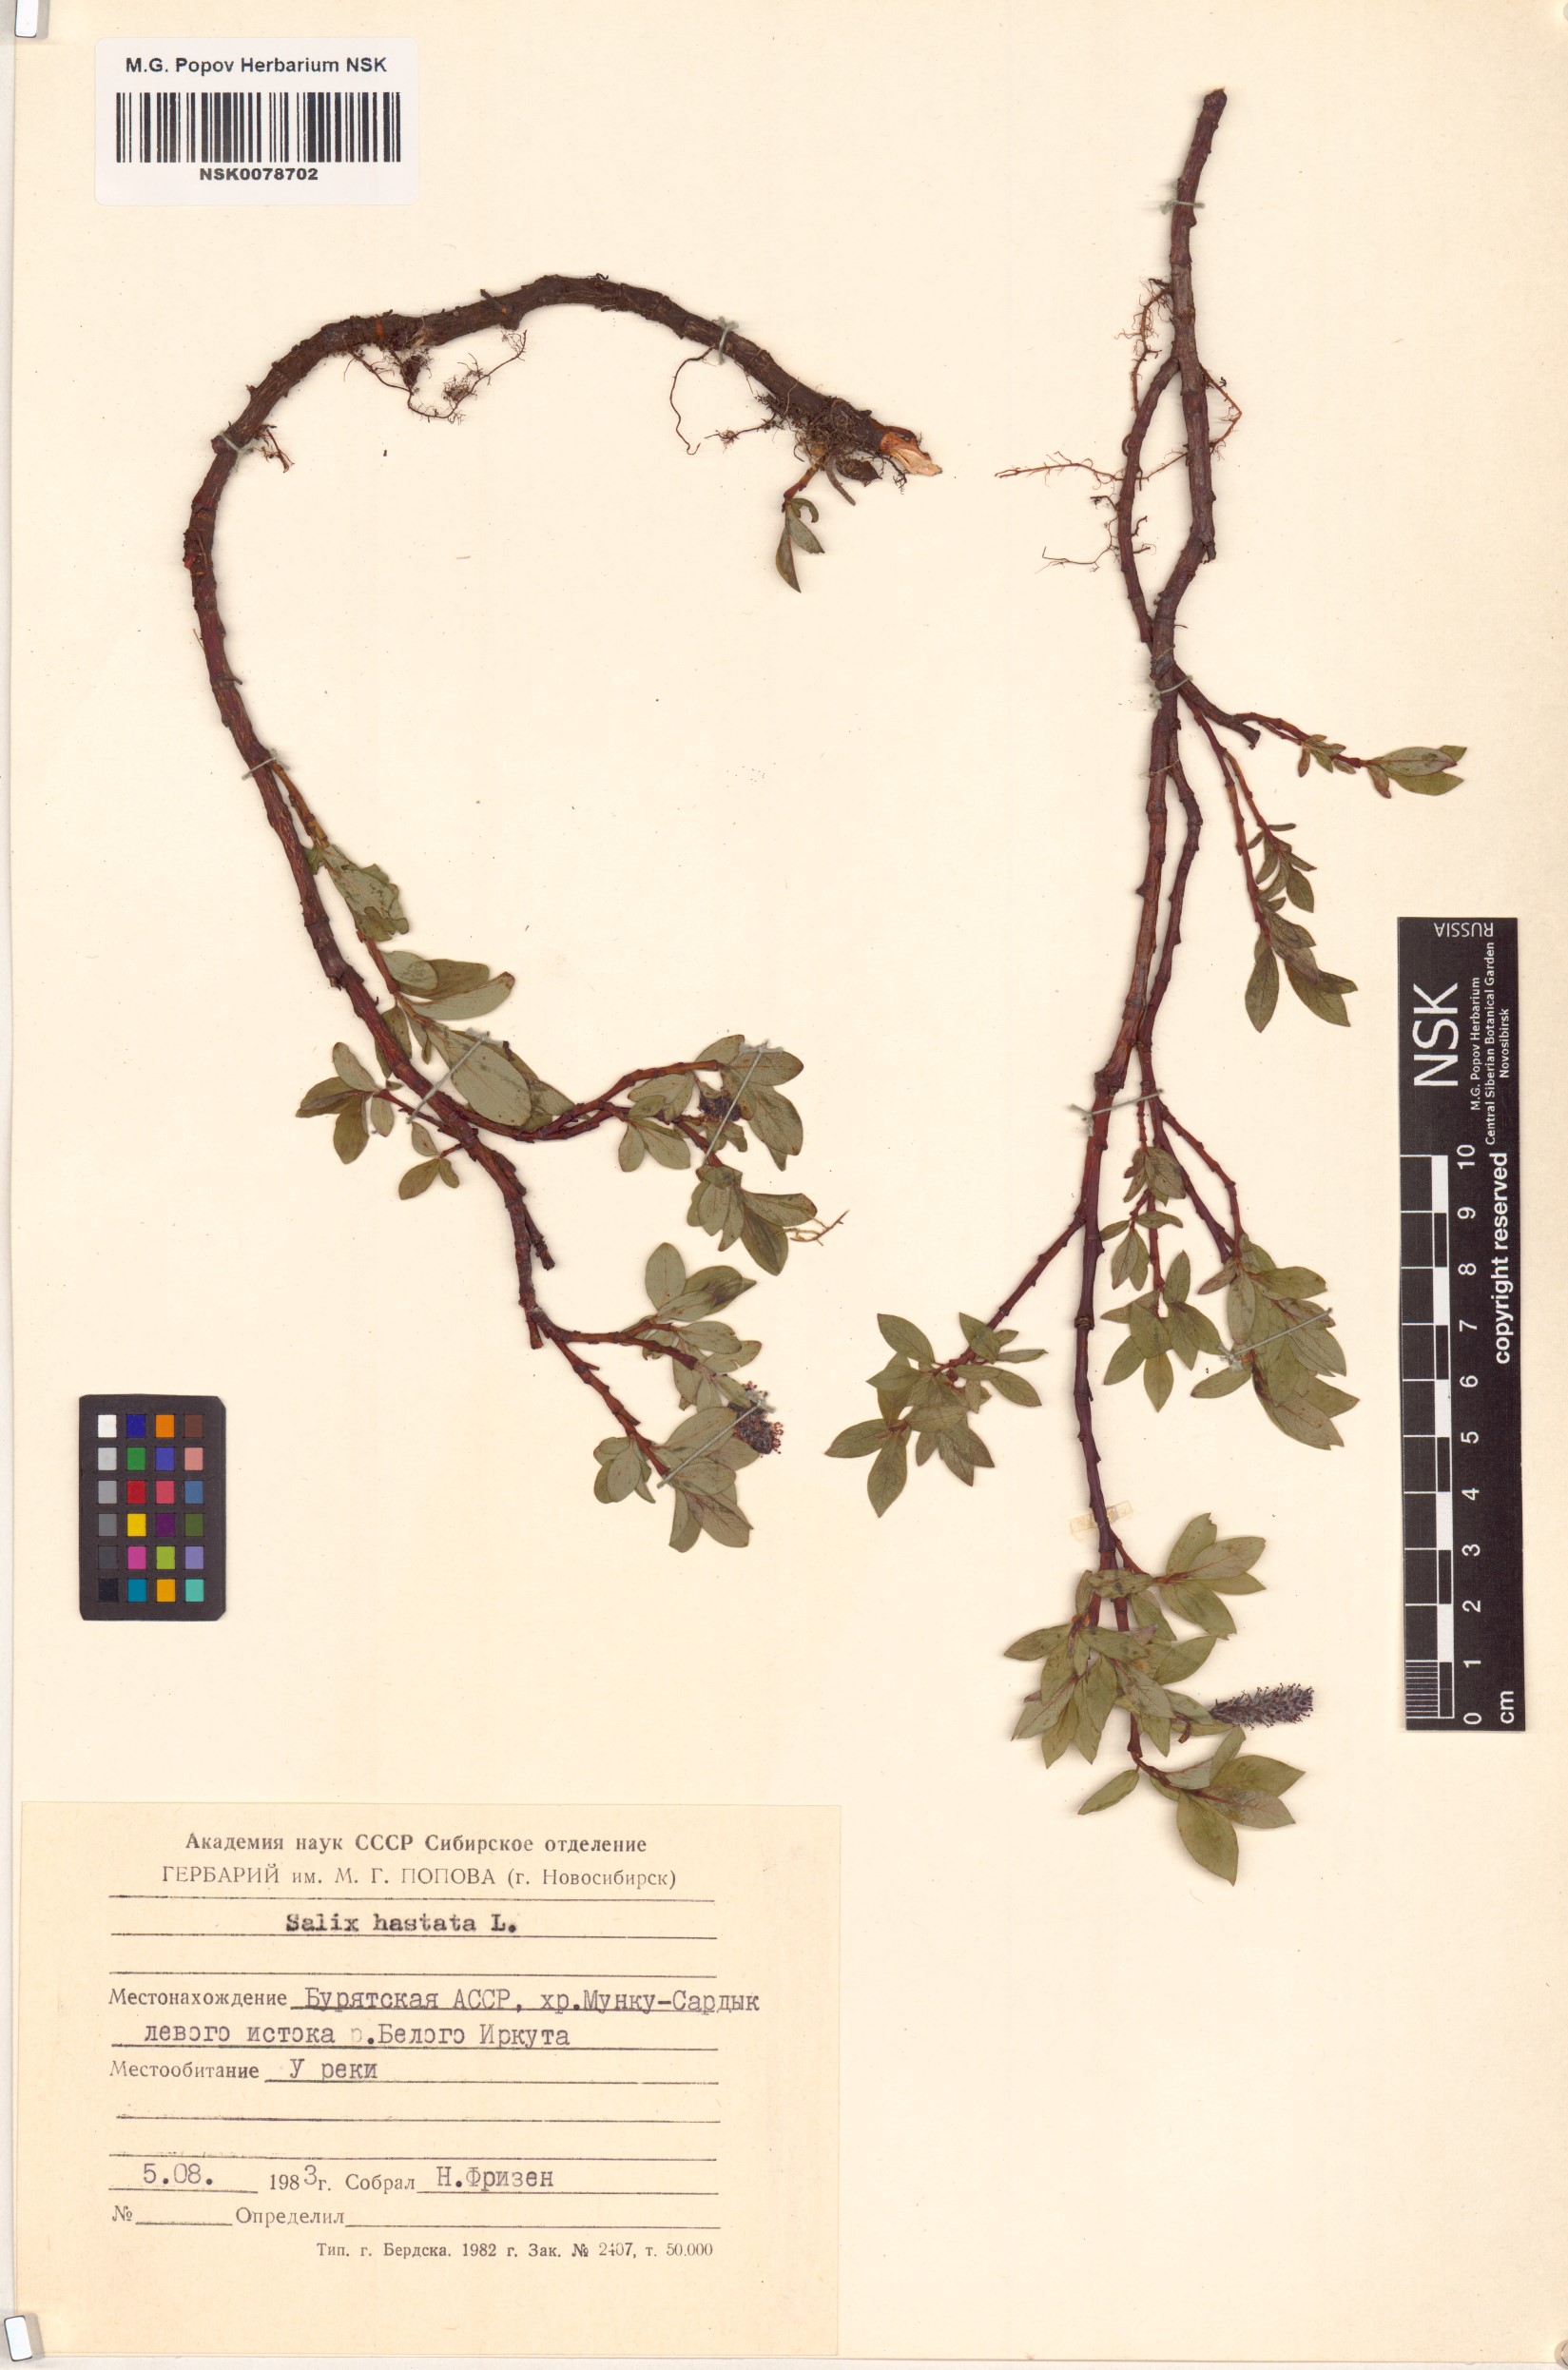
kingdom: Plantae
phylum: Tracheophyta
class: Magnoliopsida
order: Malpighiales
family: Salicaceae
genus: Salix
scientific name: Salix hastata
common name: Halberd willow
